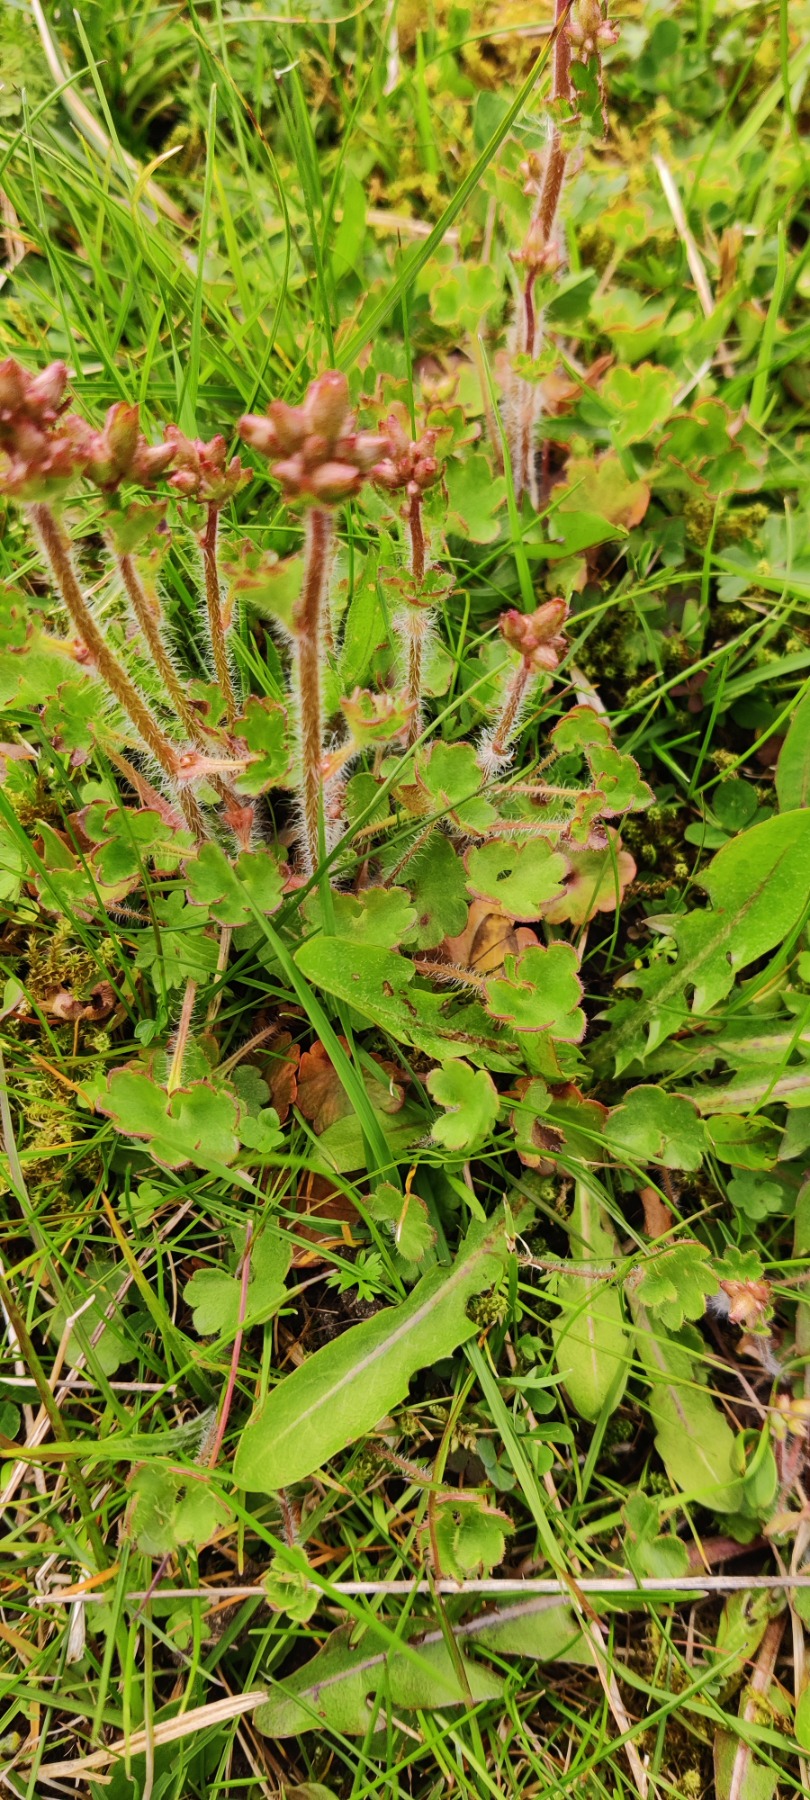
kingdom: Plantae
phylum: Tracheophyta
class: Magnoliopsida
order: Saxifragales
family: Saxifragaceae
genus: Saxifraga
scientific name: Saxifraga granulata
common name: Kornet stenbræk
